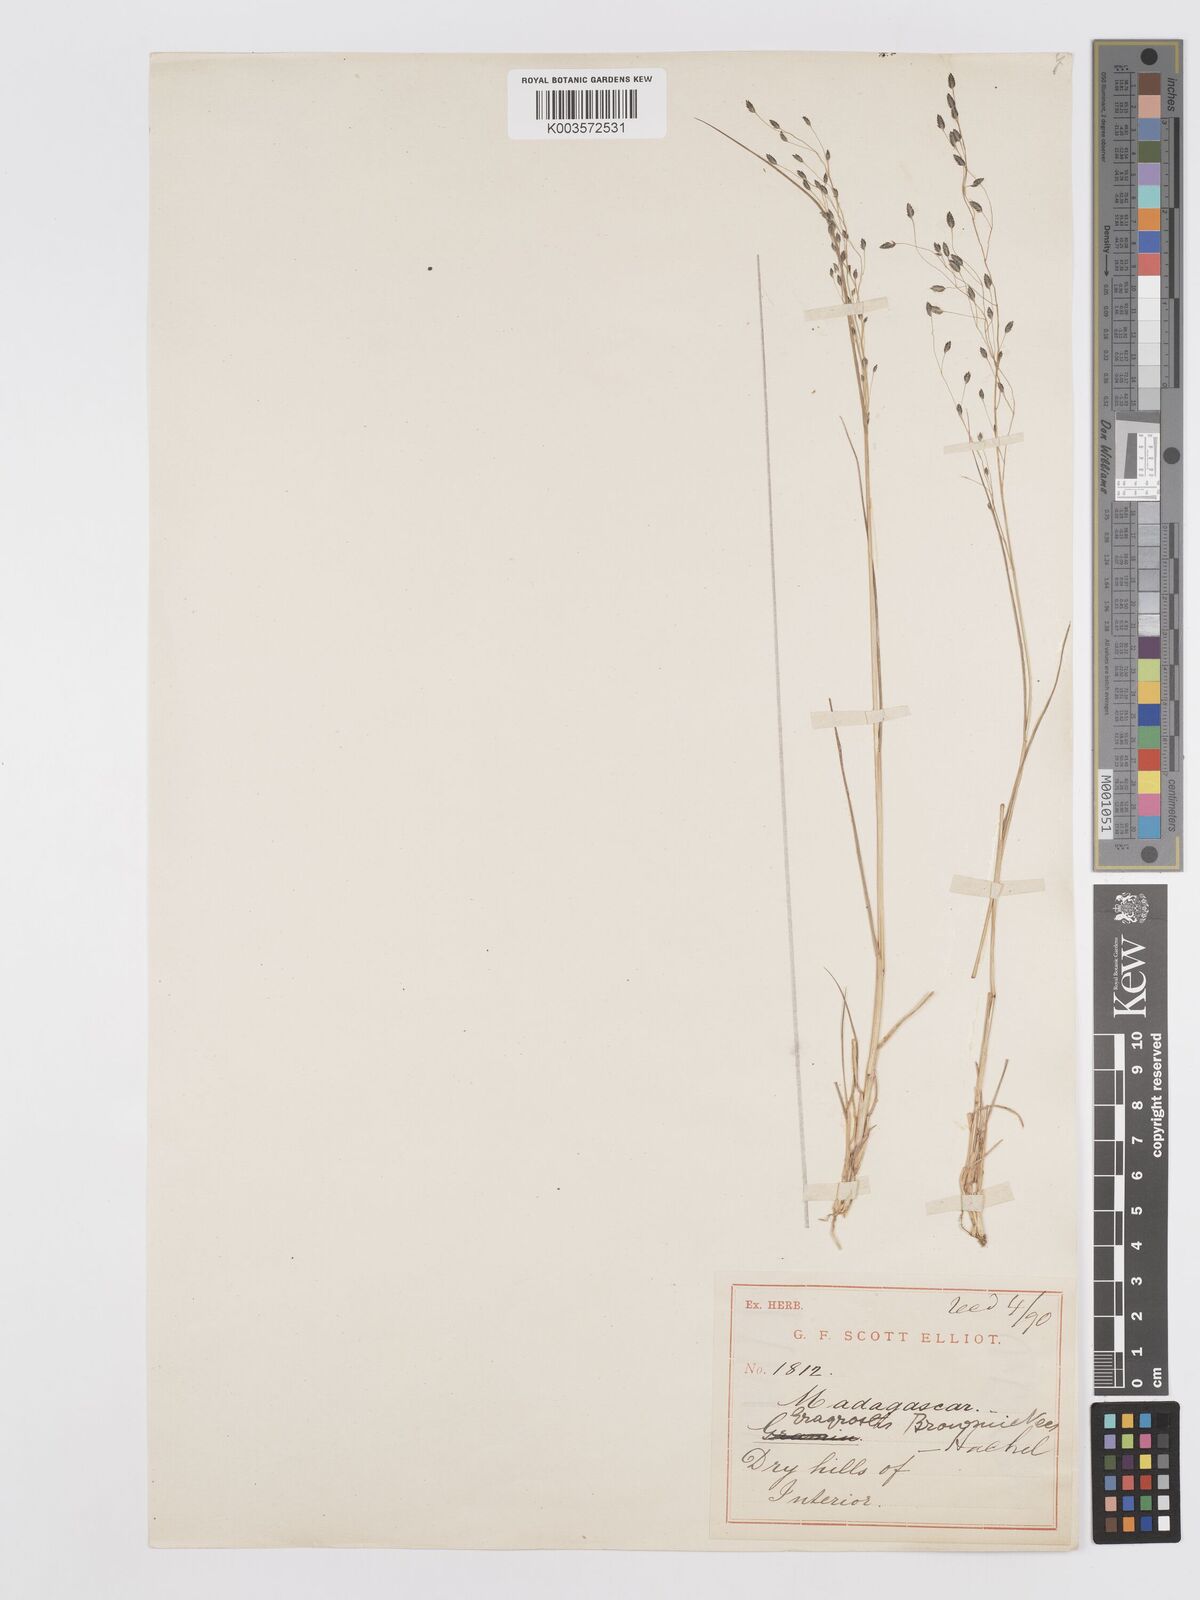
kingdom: Plantae
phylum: Tracheophyta
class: Liliopsida
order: Poales
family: Poaceae
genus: Eragrostis
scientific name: Eragrostis hildebrandtii
